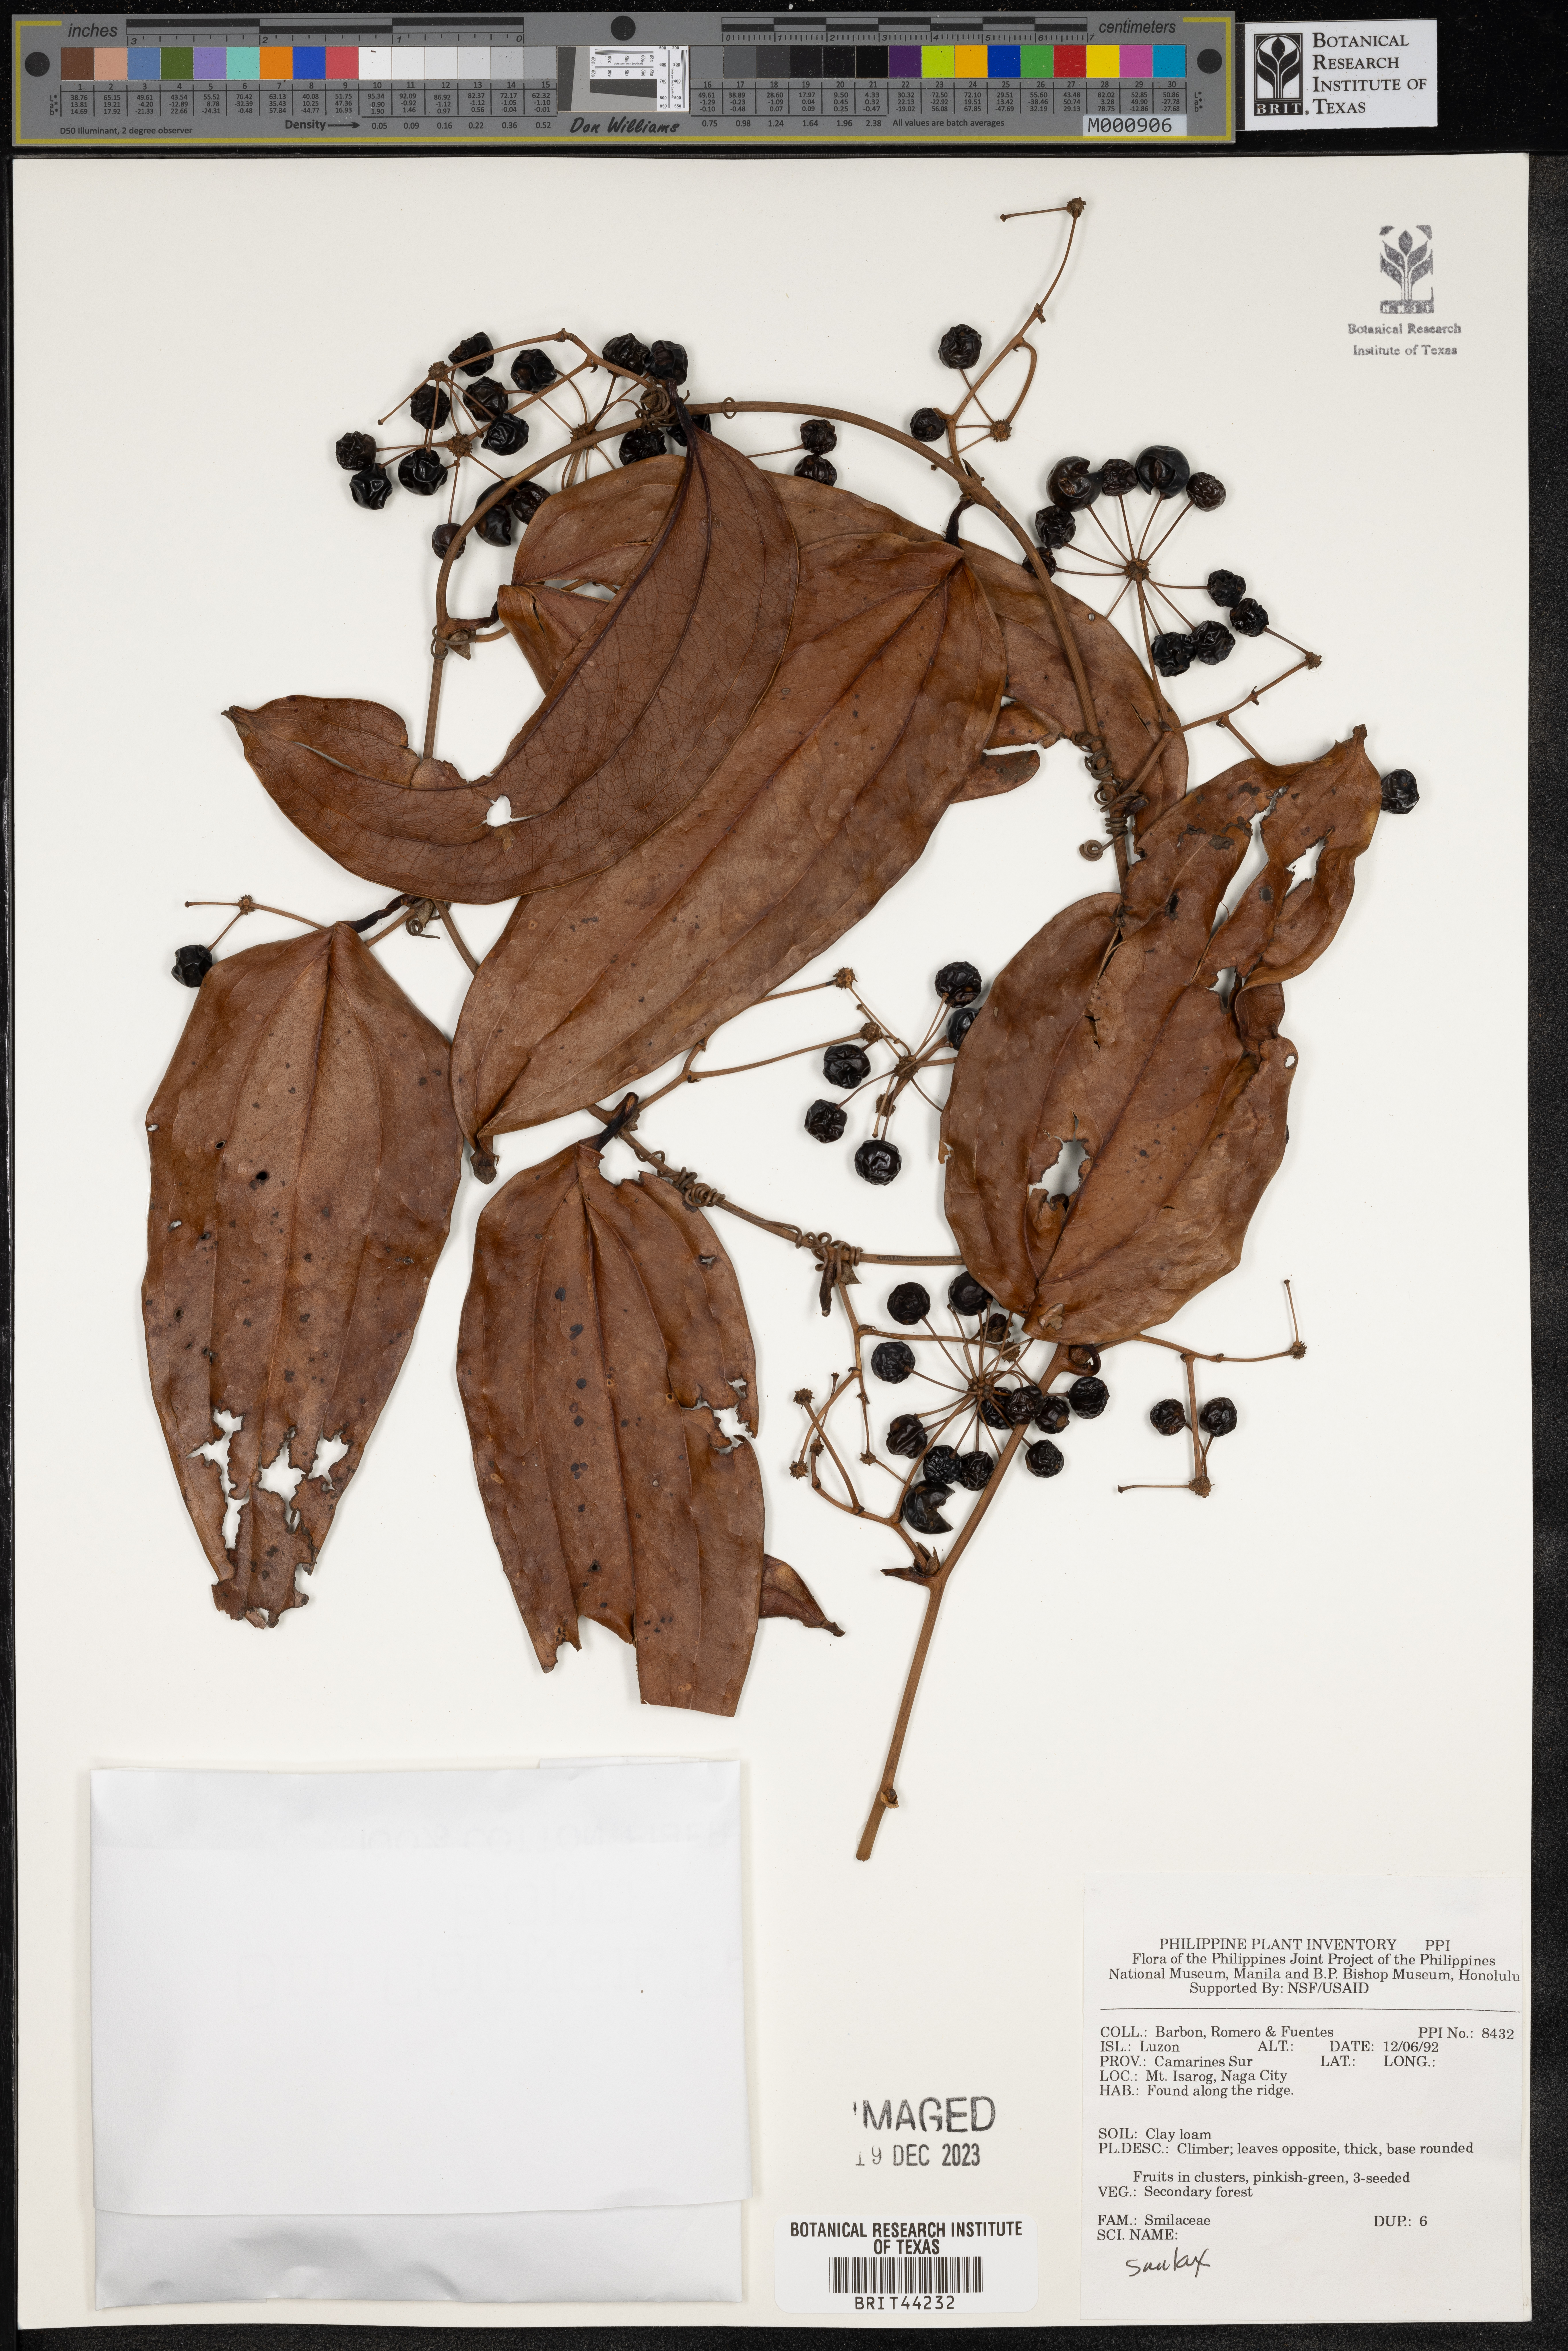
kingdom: Plantae
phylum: Tracheophyta
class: Liliopsida
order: Liliales
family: Smilacaceae
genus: Smilax
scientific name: Smilax
